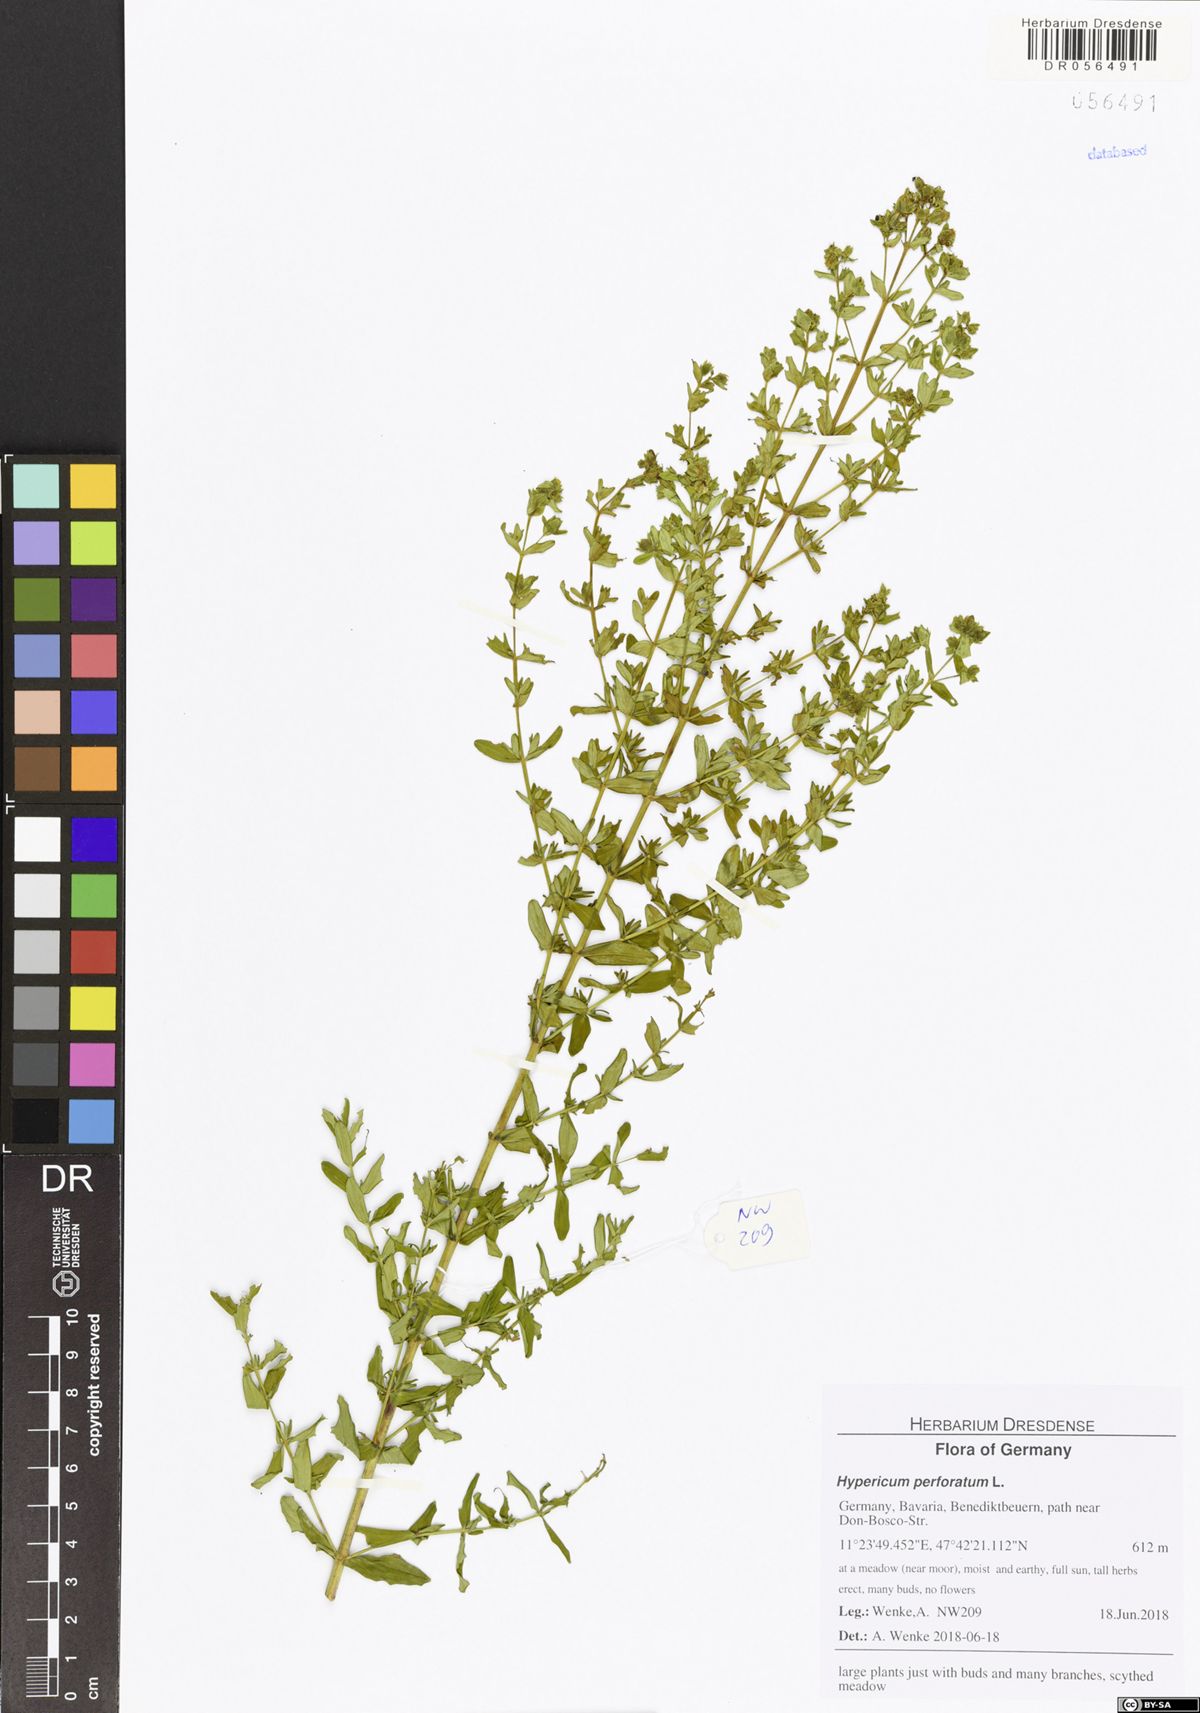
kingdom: Plantae
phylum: Tracheophyta
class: Magnoliopsida
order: Malpighiales
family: Hypericaceae
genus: Hypericum
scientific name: Hypericum perforatum
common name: Common st. johnswort
